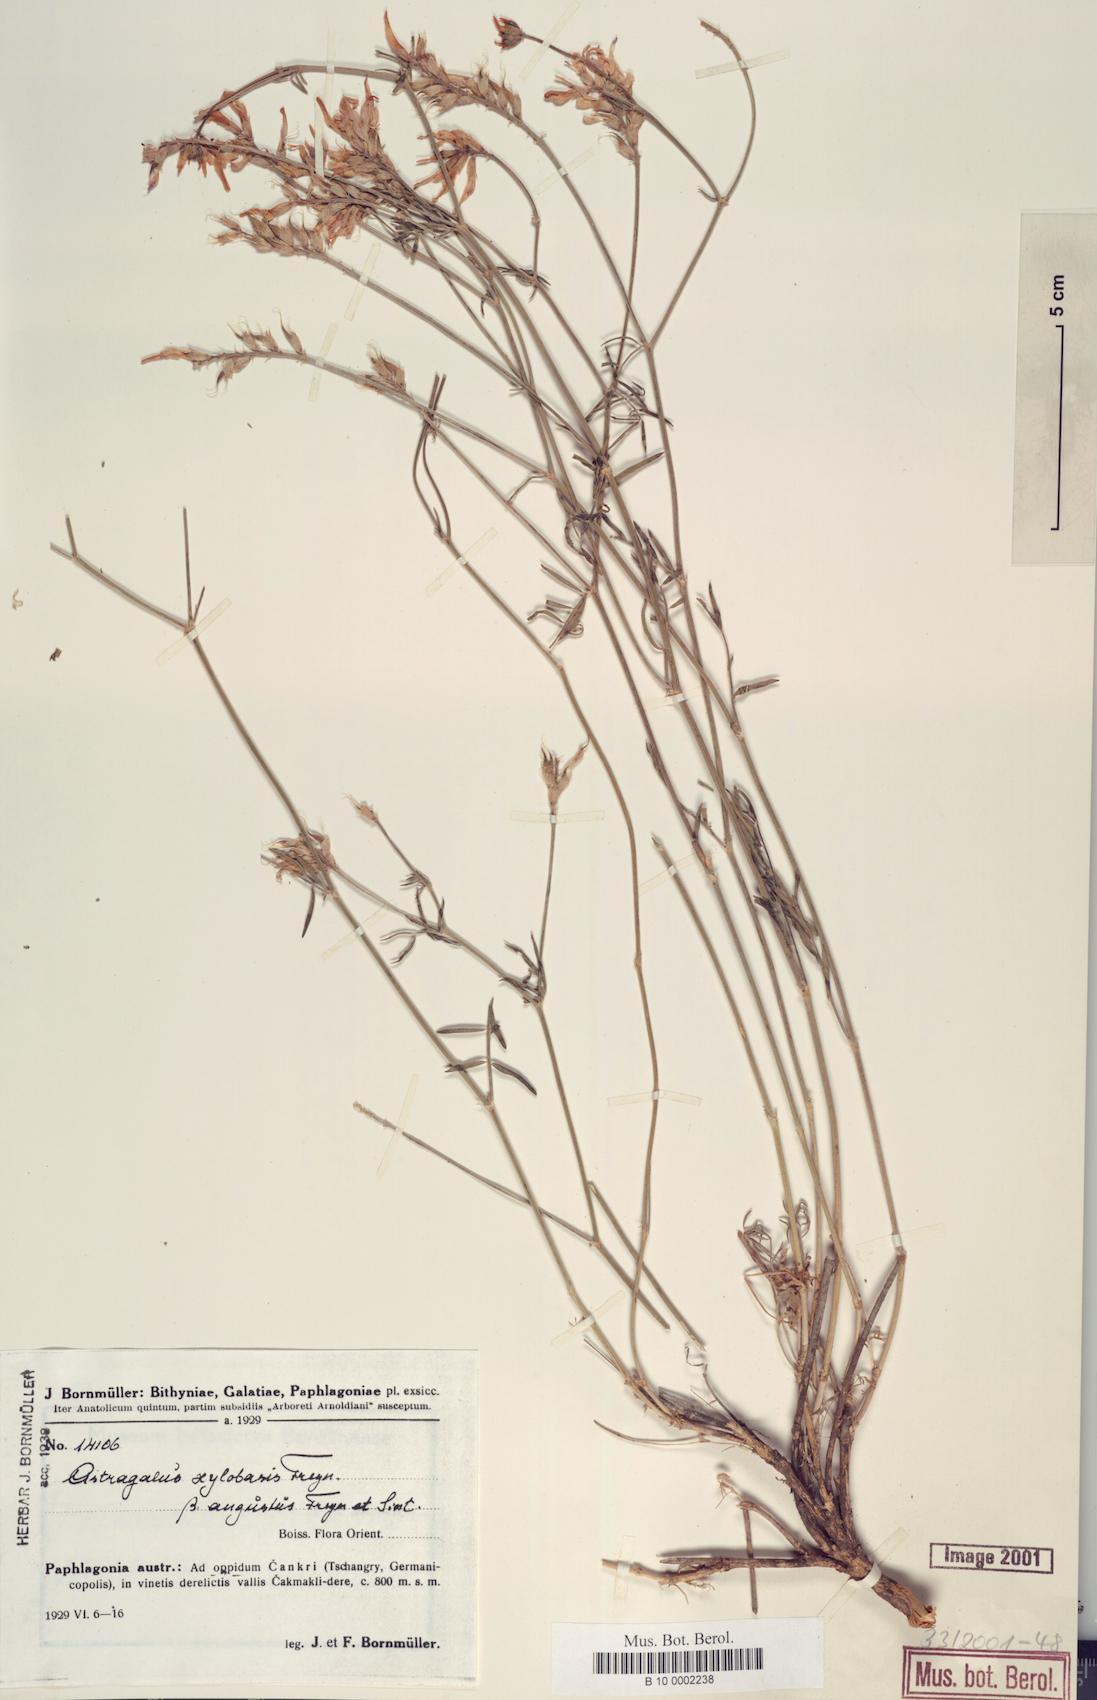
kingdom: Plantae
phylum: Tracheophyta
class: Magnoliopsida
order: Fabales
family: Fabaceae
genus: Astragalus
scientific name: Astragalus aduncus
